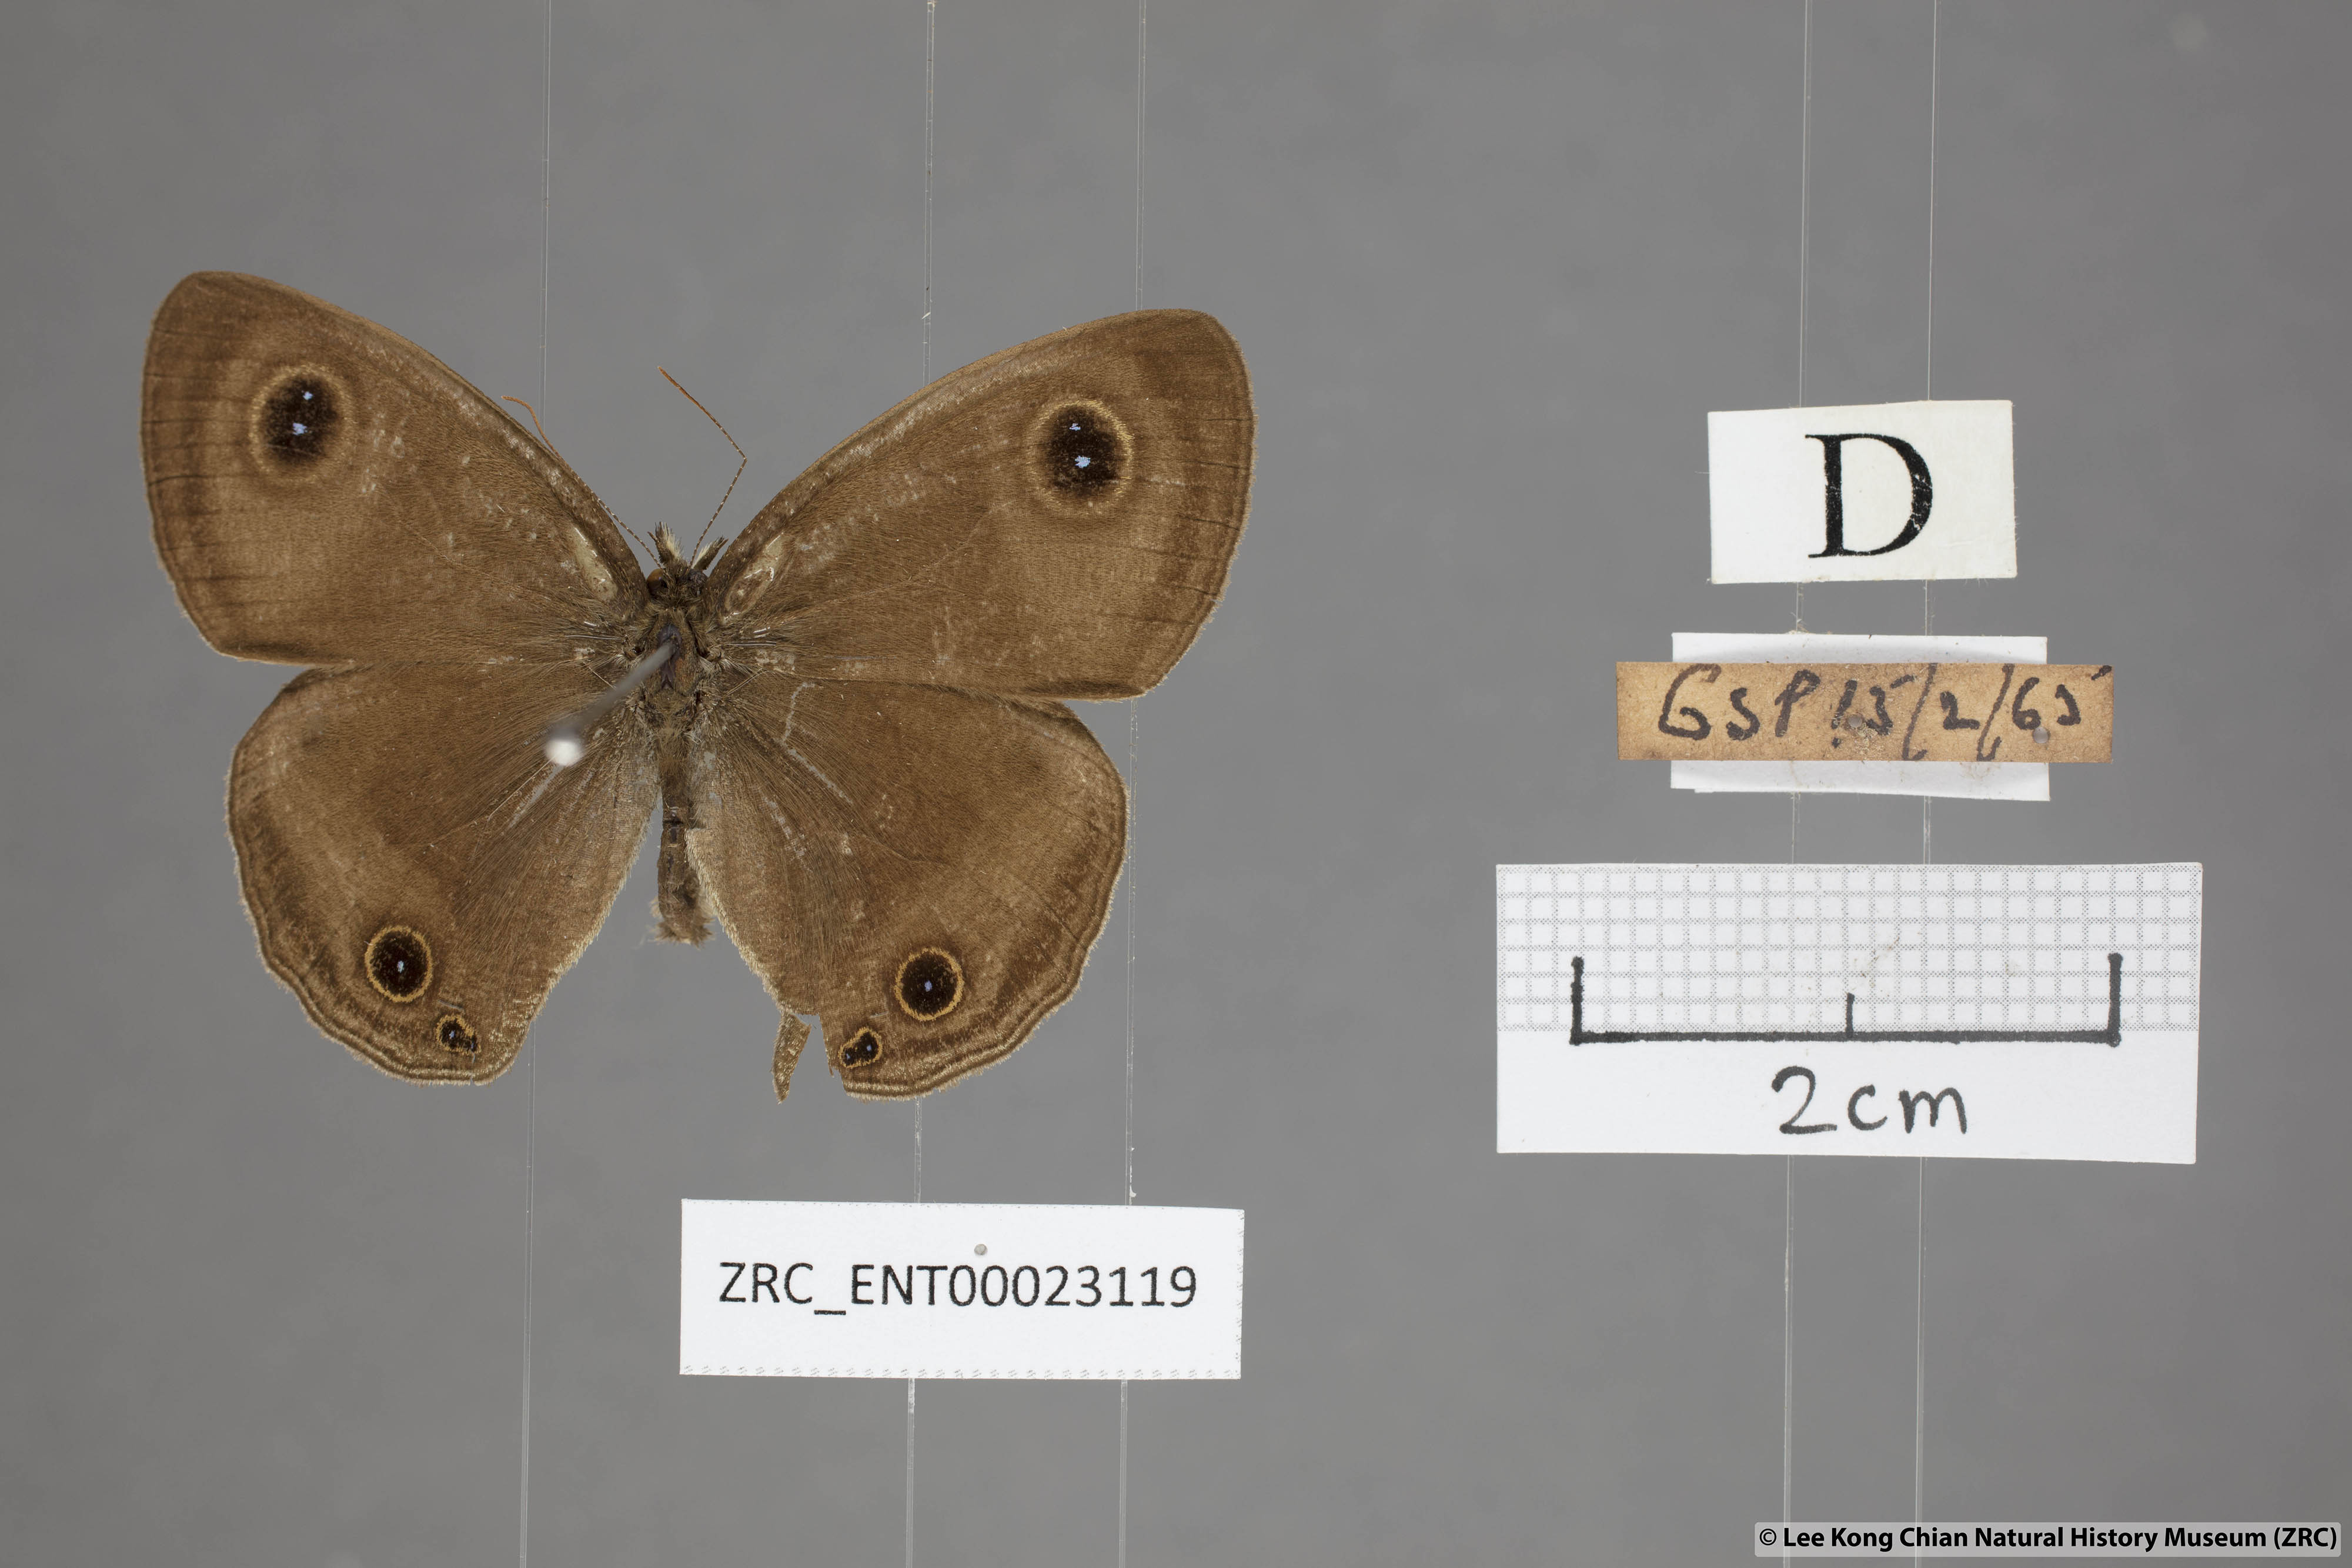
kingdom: Animalia
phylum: Arthropoda
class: Insecta
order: Lepidoptera
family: Nymphalidae
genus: Ypthima
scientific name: Ypthima pandocus
